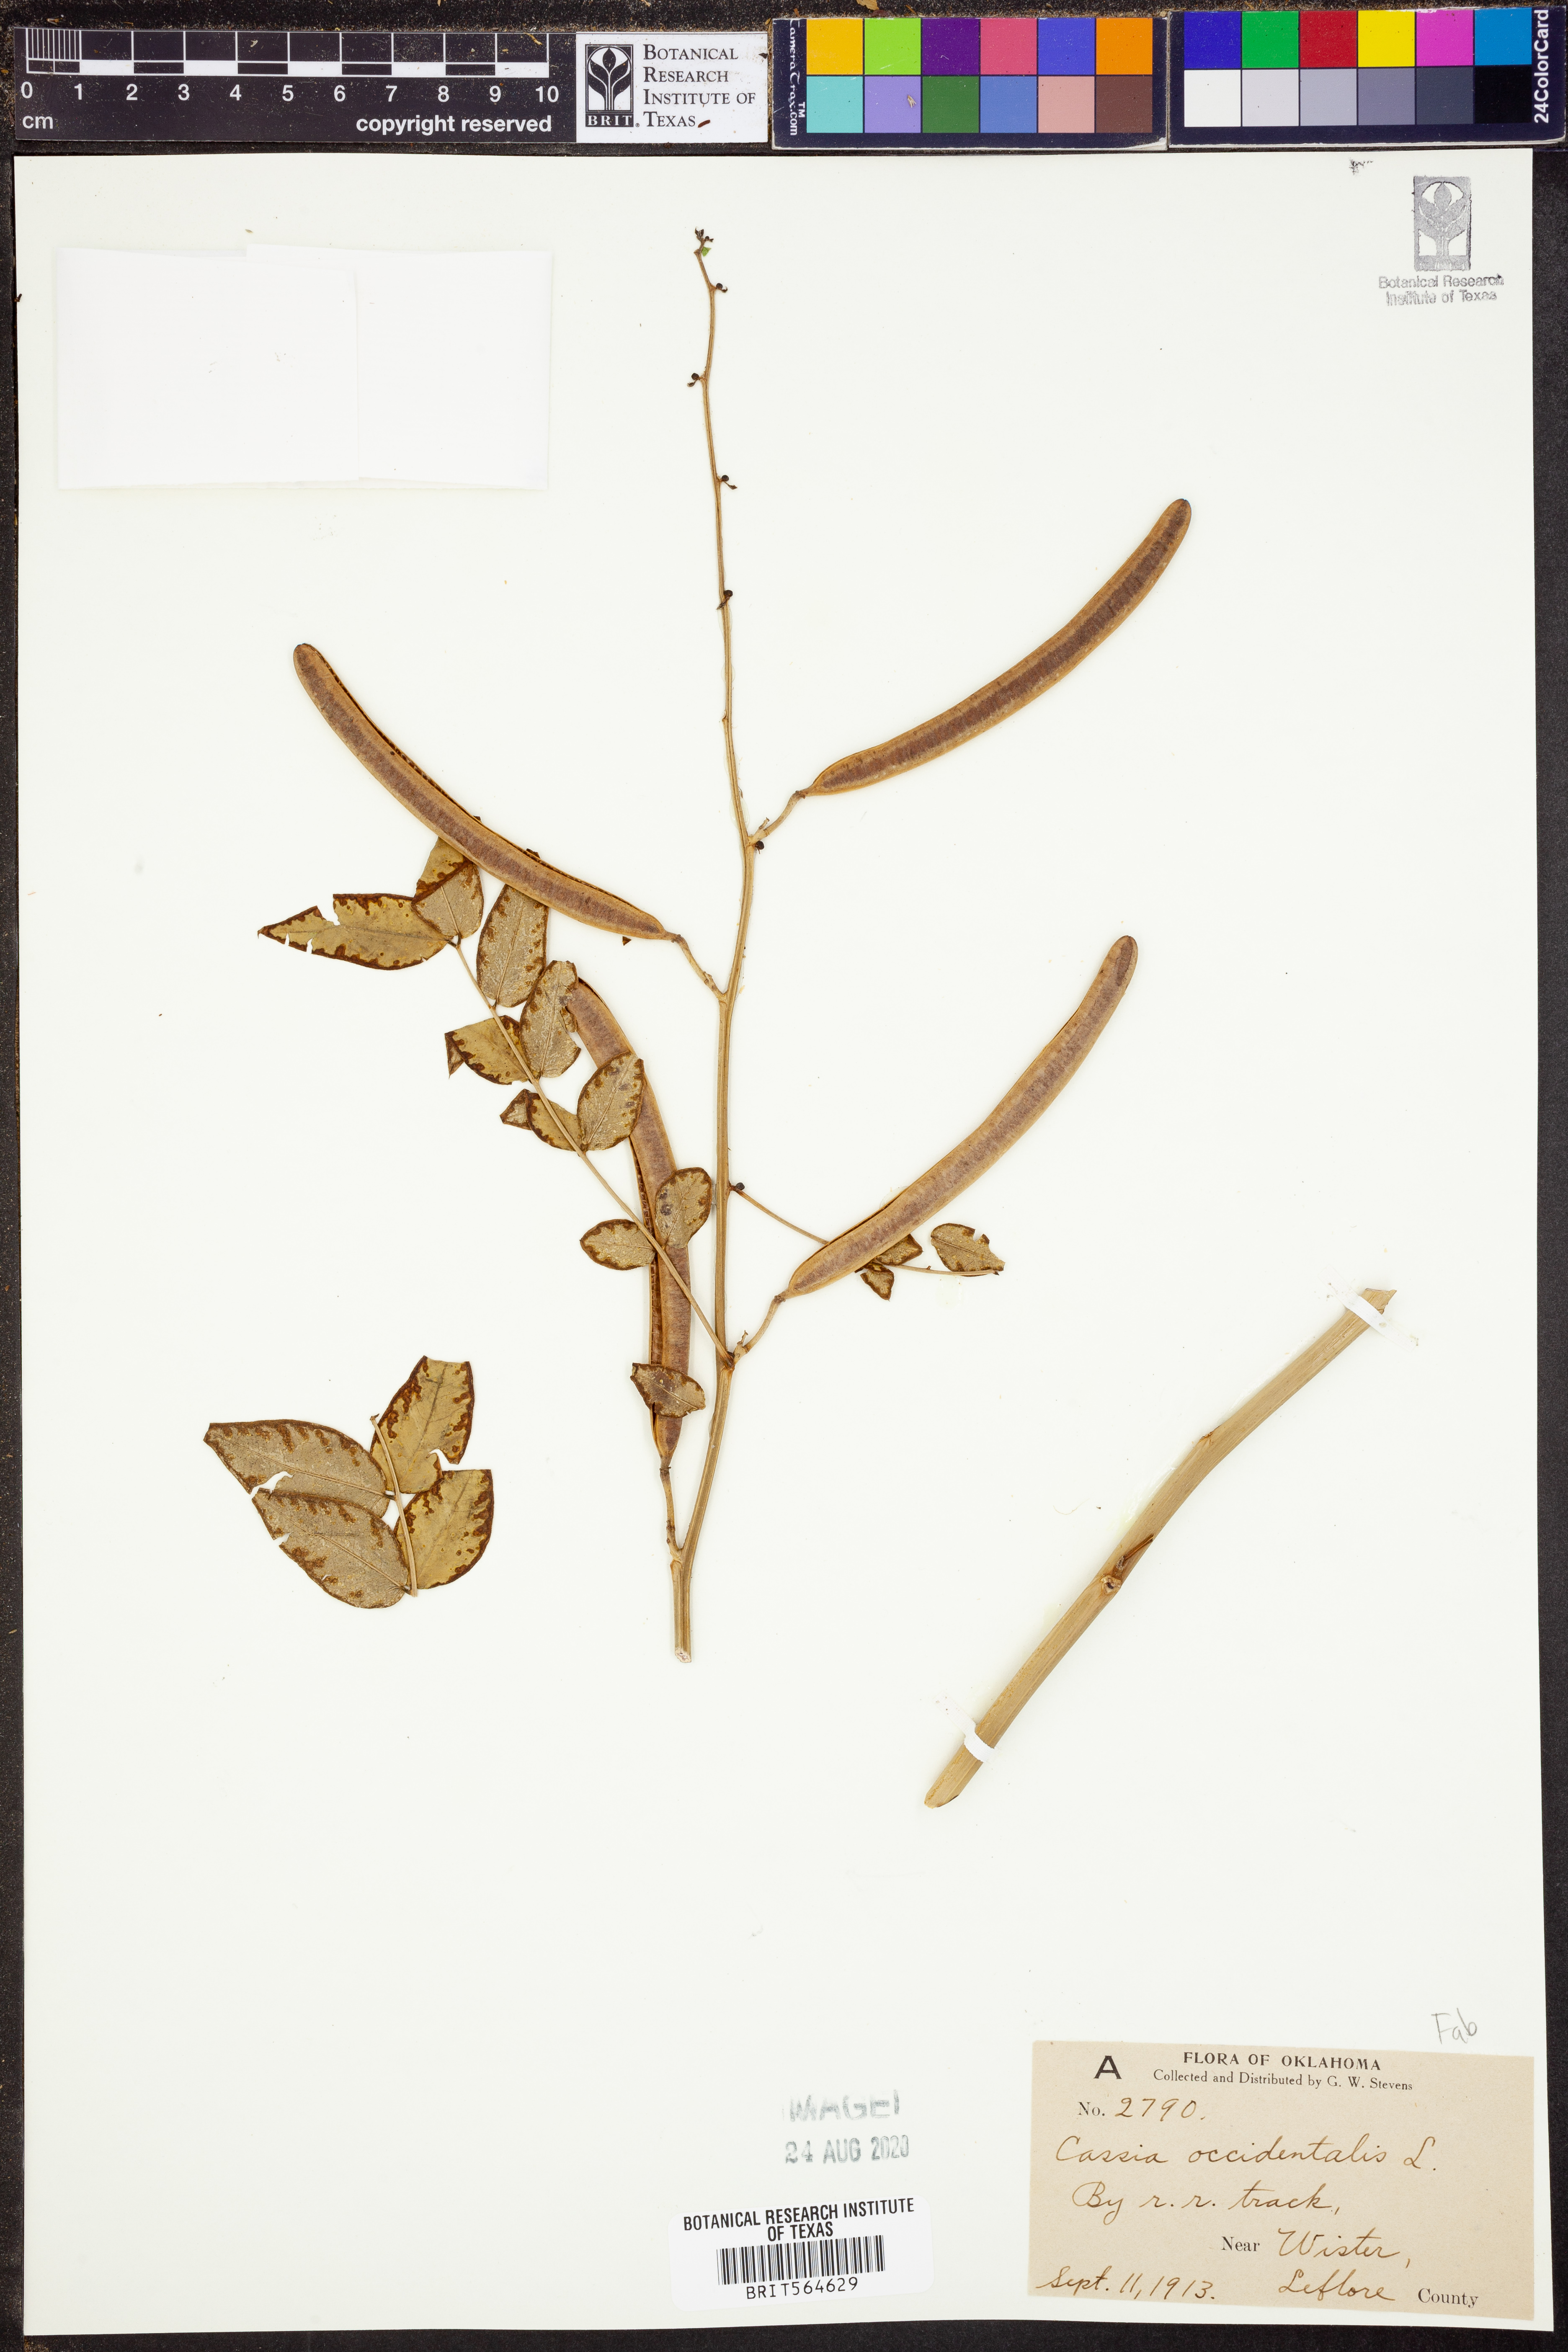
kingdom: Plantae
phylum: Tracheophyta
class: Magnoliopsida
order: Fabales
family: Fabaceae
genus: Senna
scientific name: Senna occidentalis
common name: Septicweed
